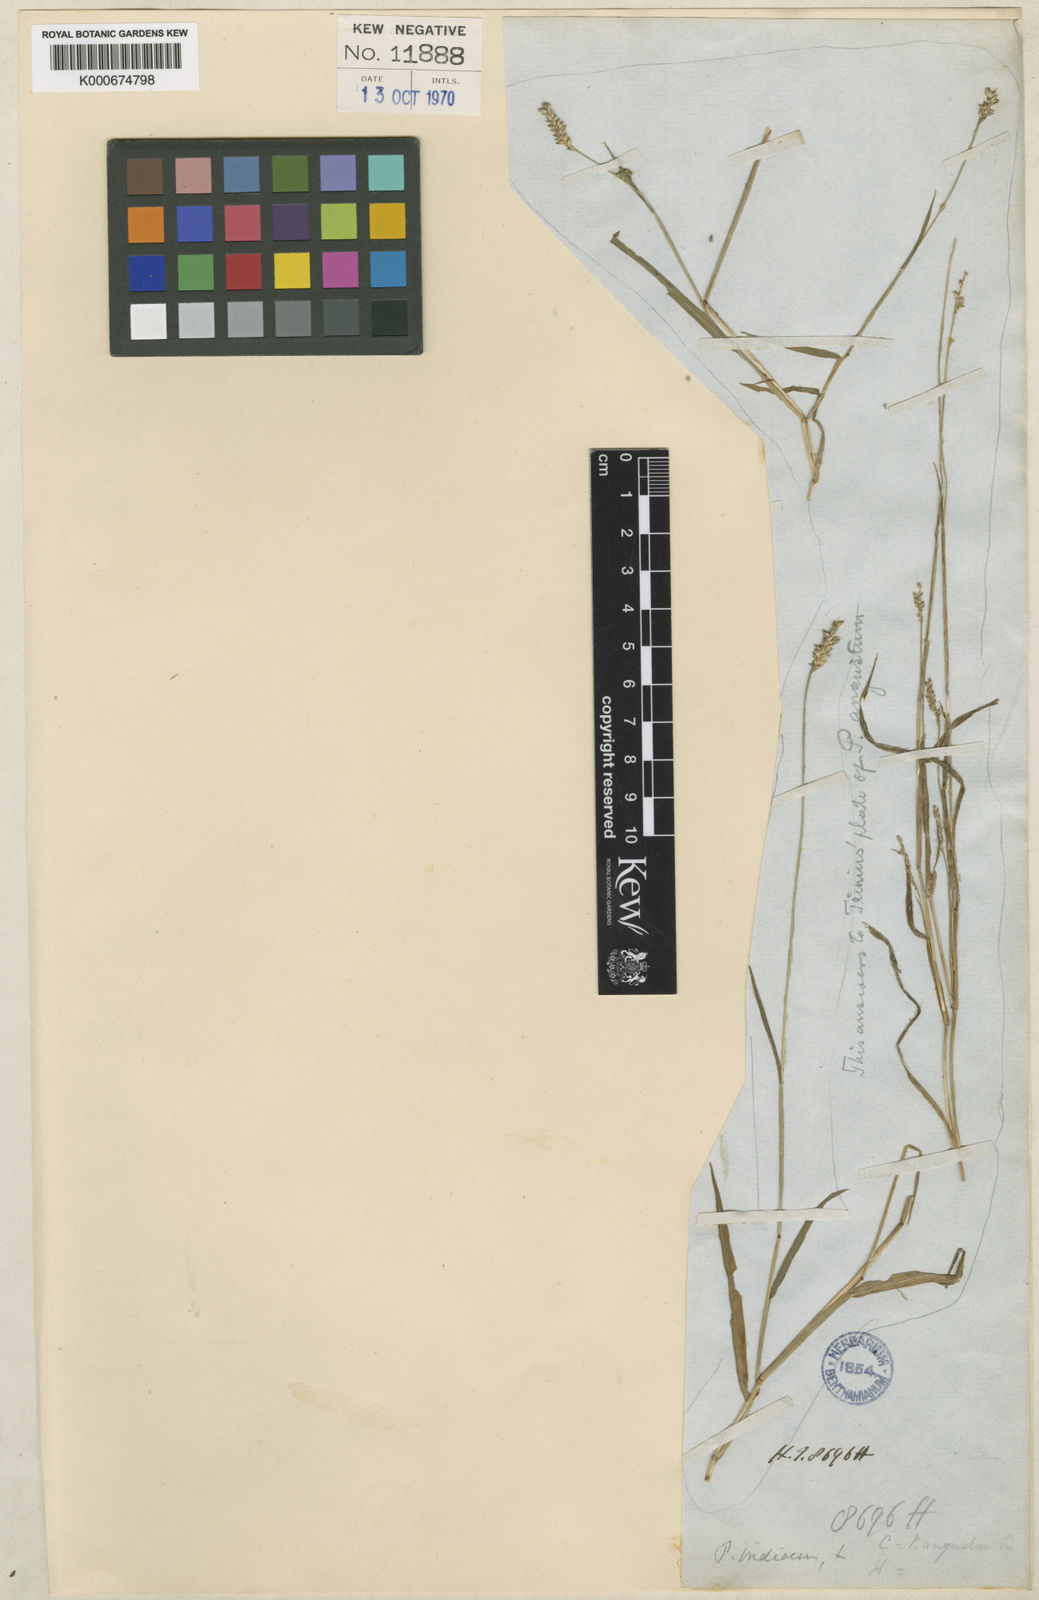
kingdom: Plantae
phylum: Tracheophyta
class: Liliopsida
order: Poales
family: Poaceae
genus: Sacciolepis
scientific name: Sacciolepis indica
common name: Glenwoodgrass
